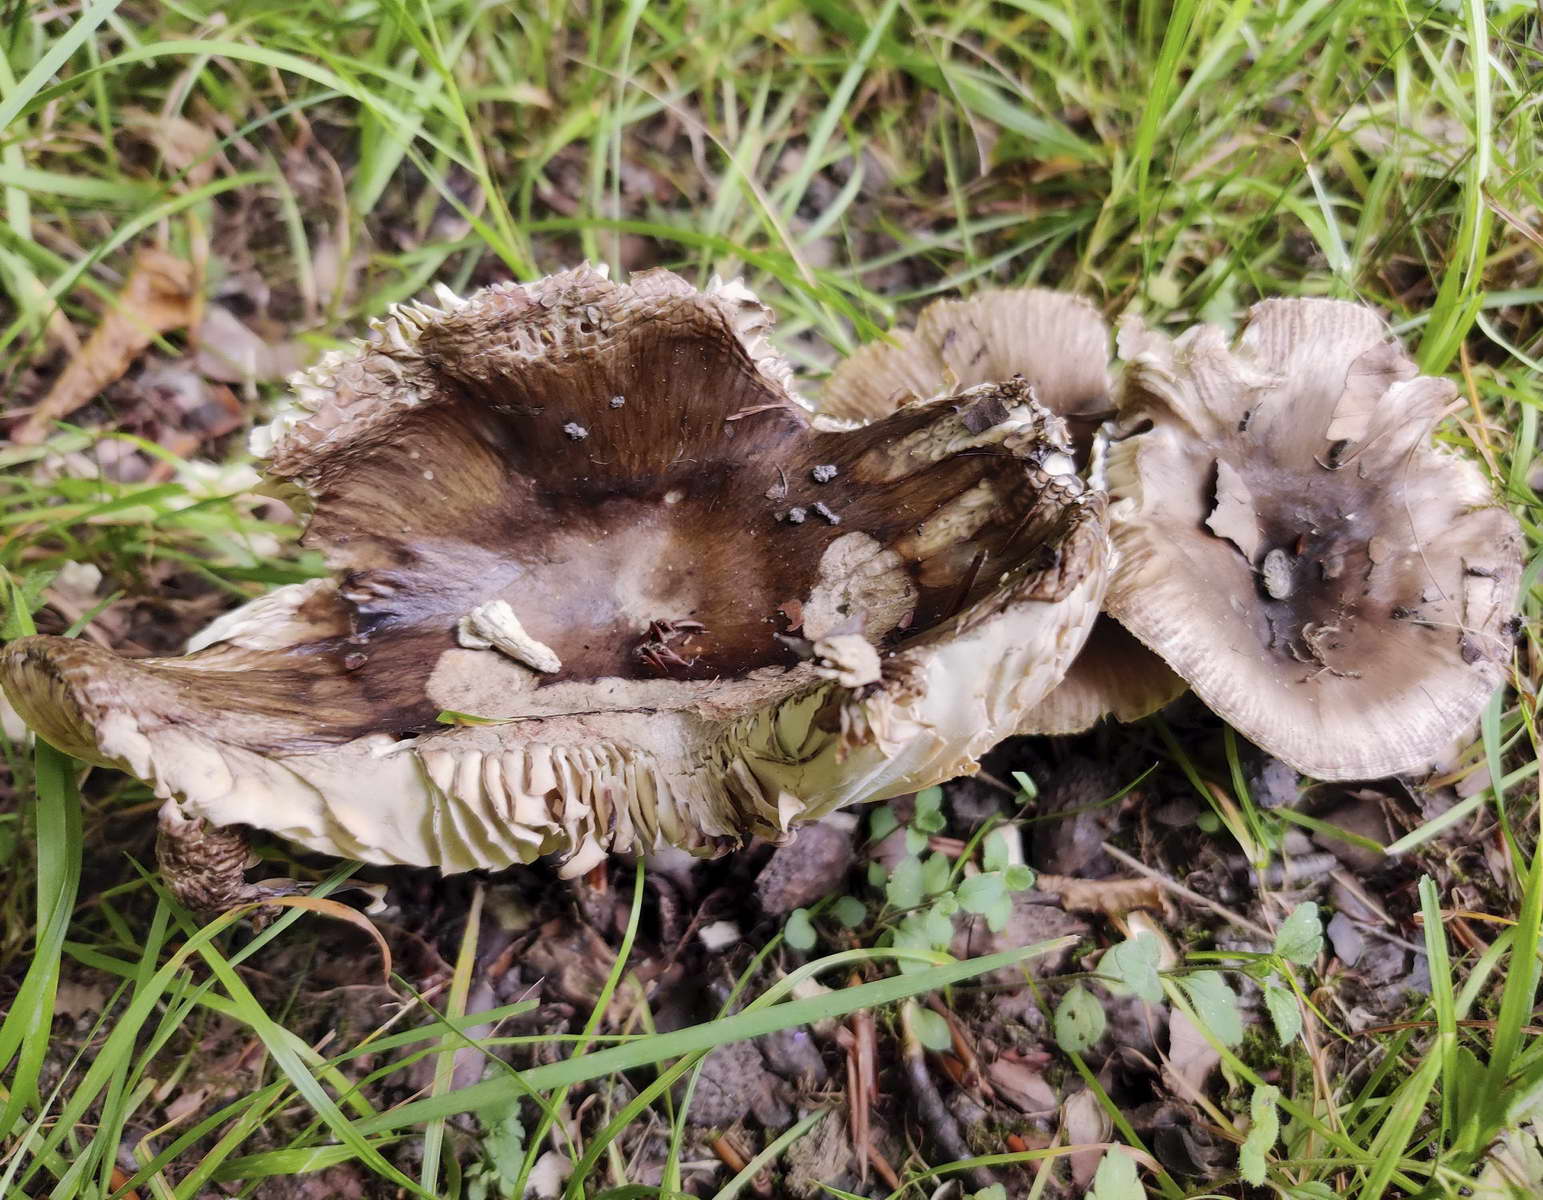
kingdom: Fungi
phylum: Basidiomycota
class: Agaricomycetes
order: Russulales
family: Russulaceae
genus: Russula
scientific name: Russula sororia
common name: brun kam-skørhat
